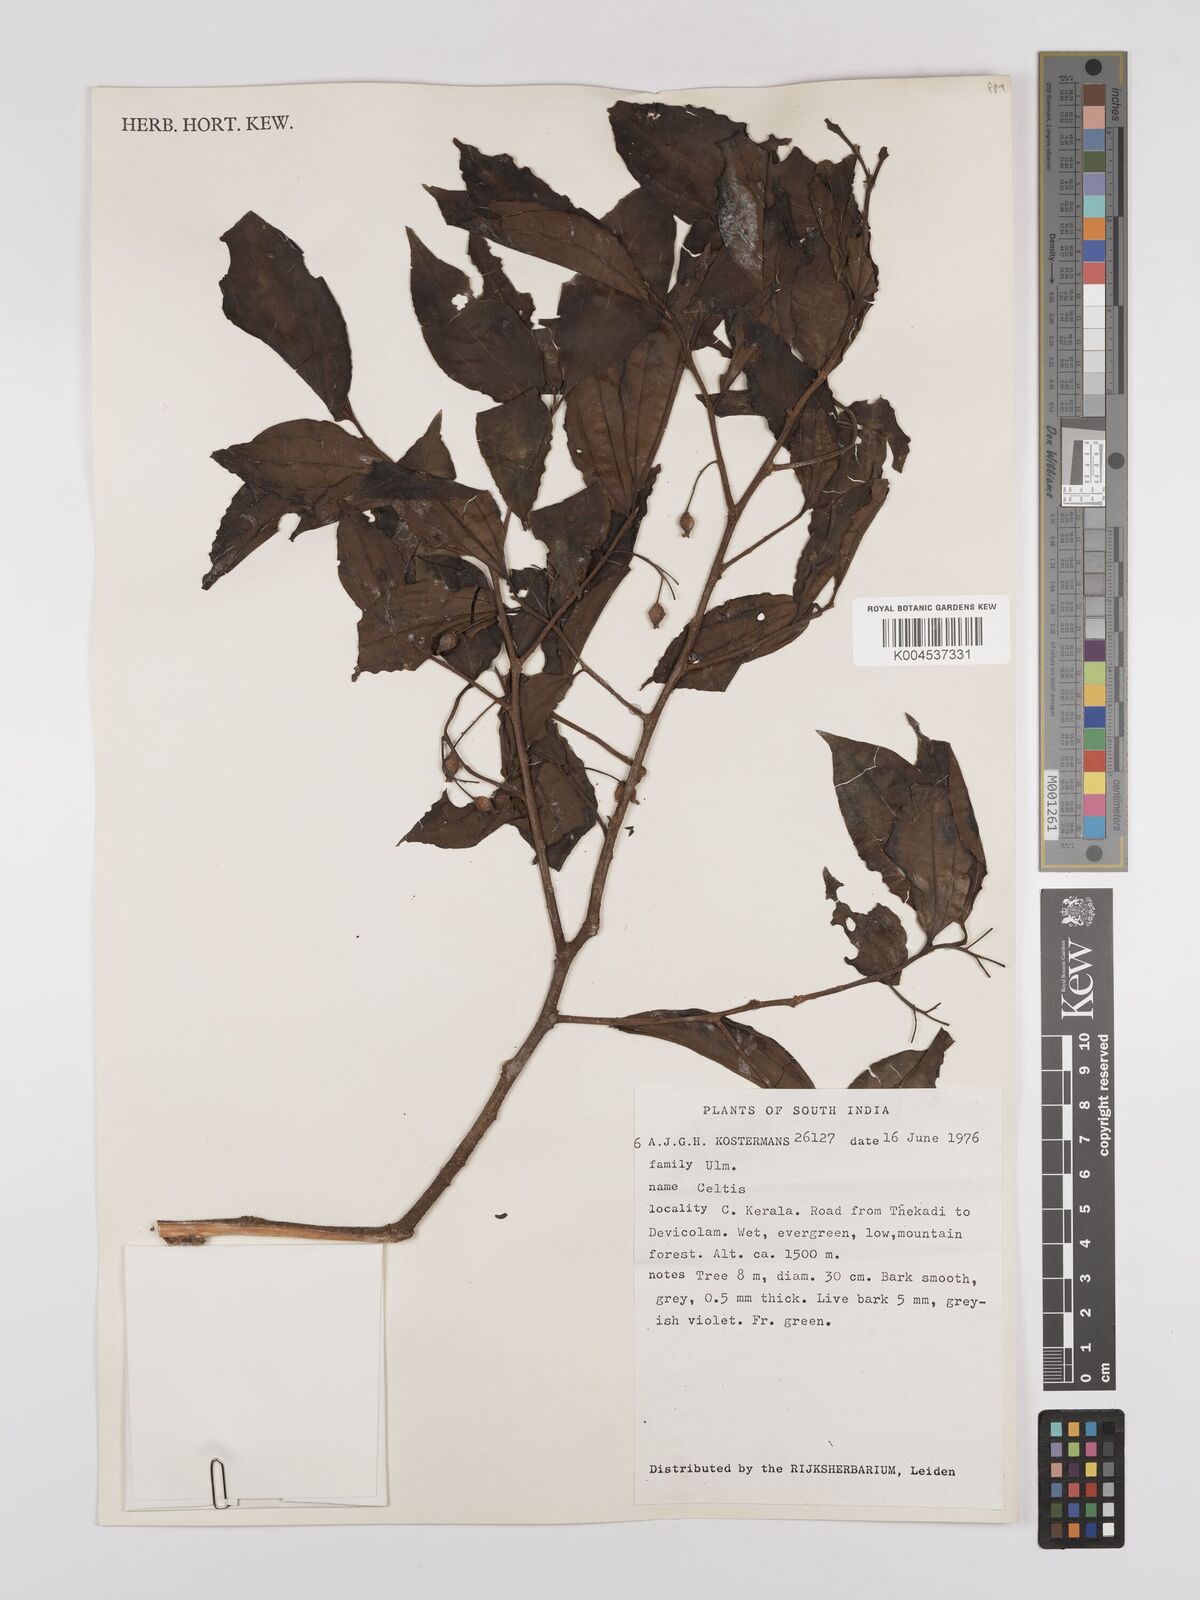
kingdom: Plantae
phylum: Tracheophyta
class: Magnoliopsida
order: Rosales
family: Cannabaceae
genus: Celtis
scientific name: Celtis
